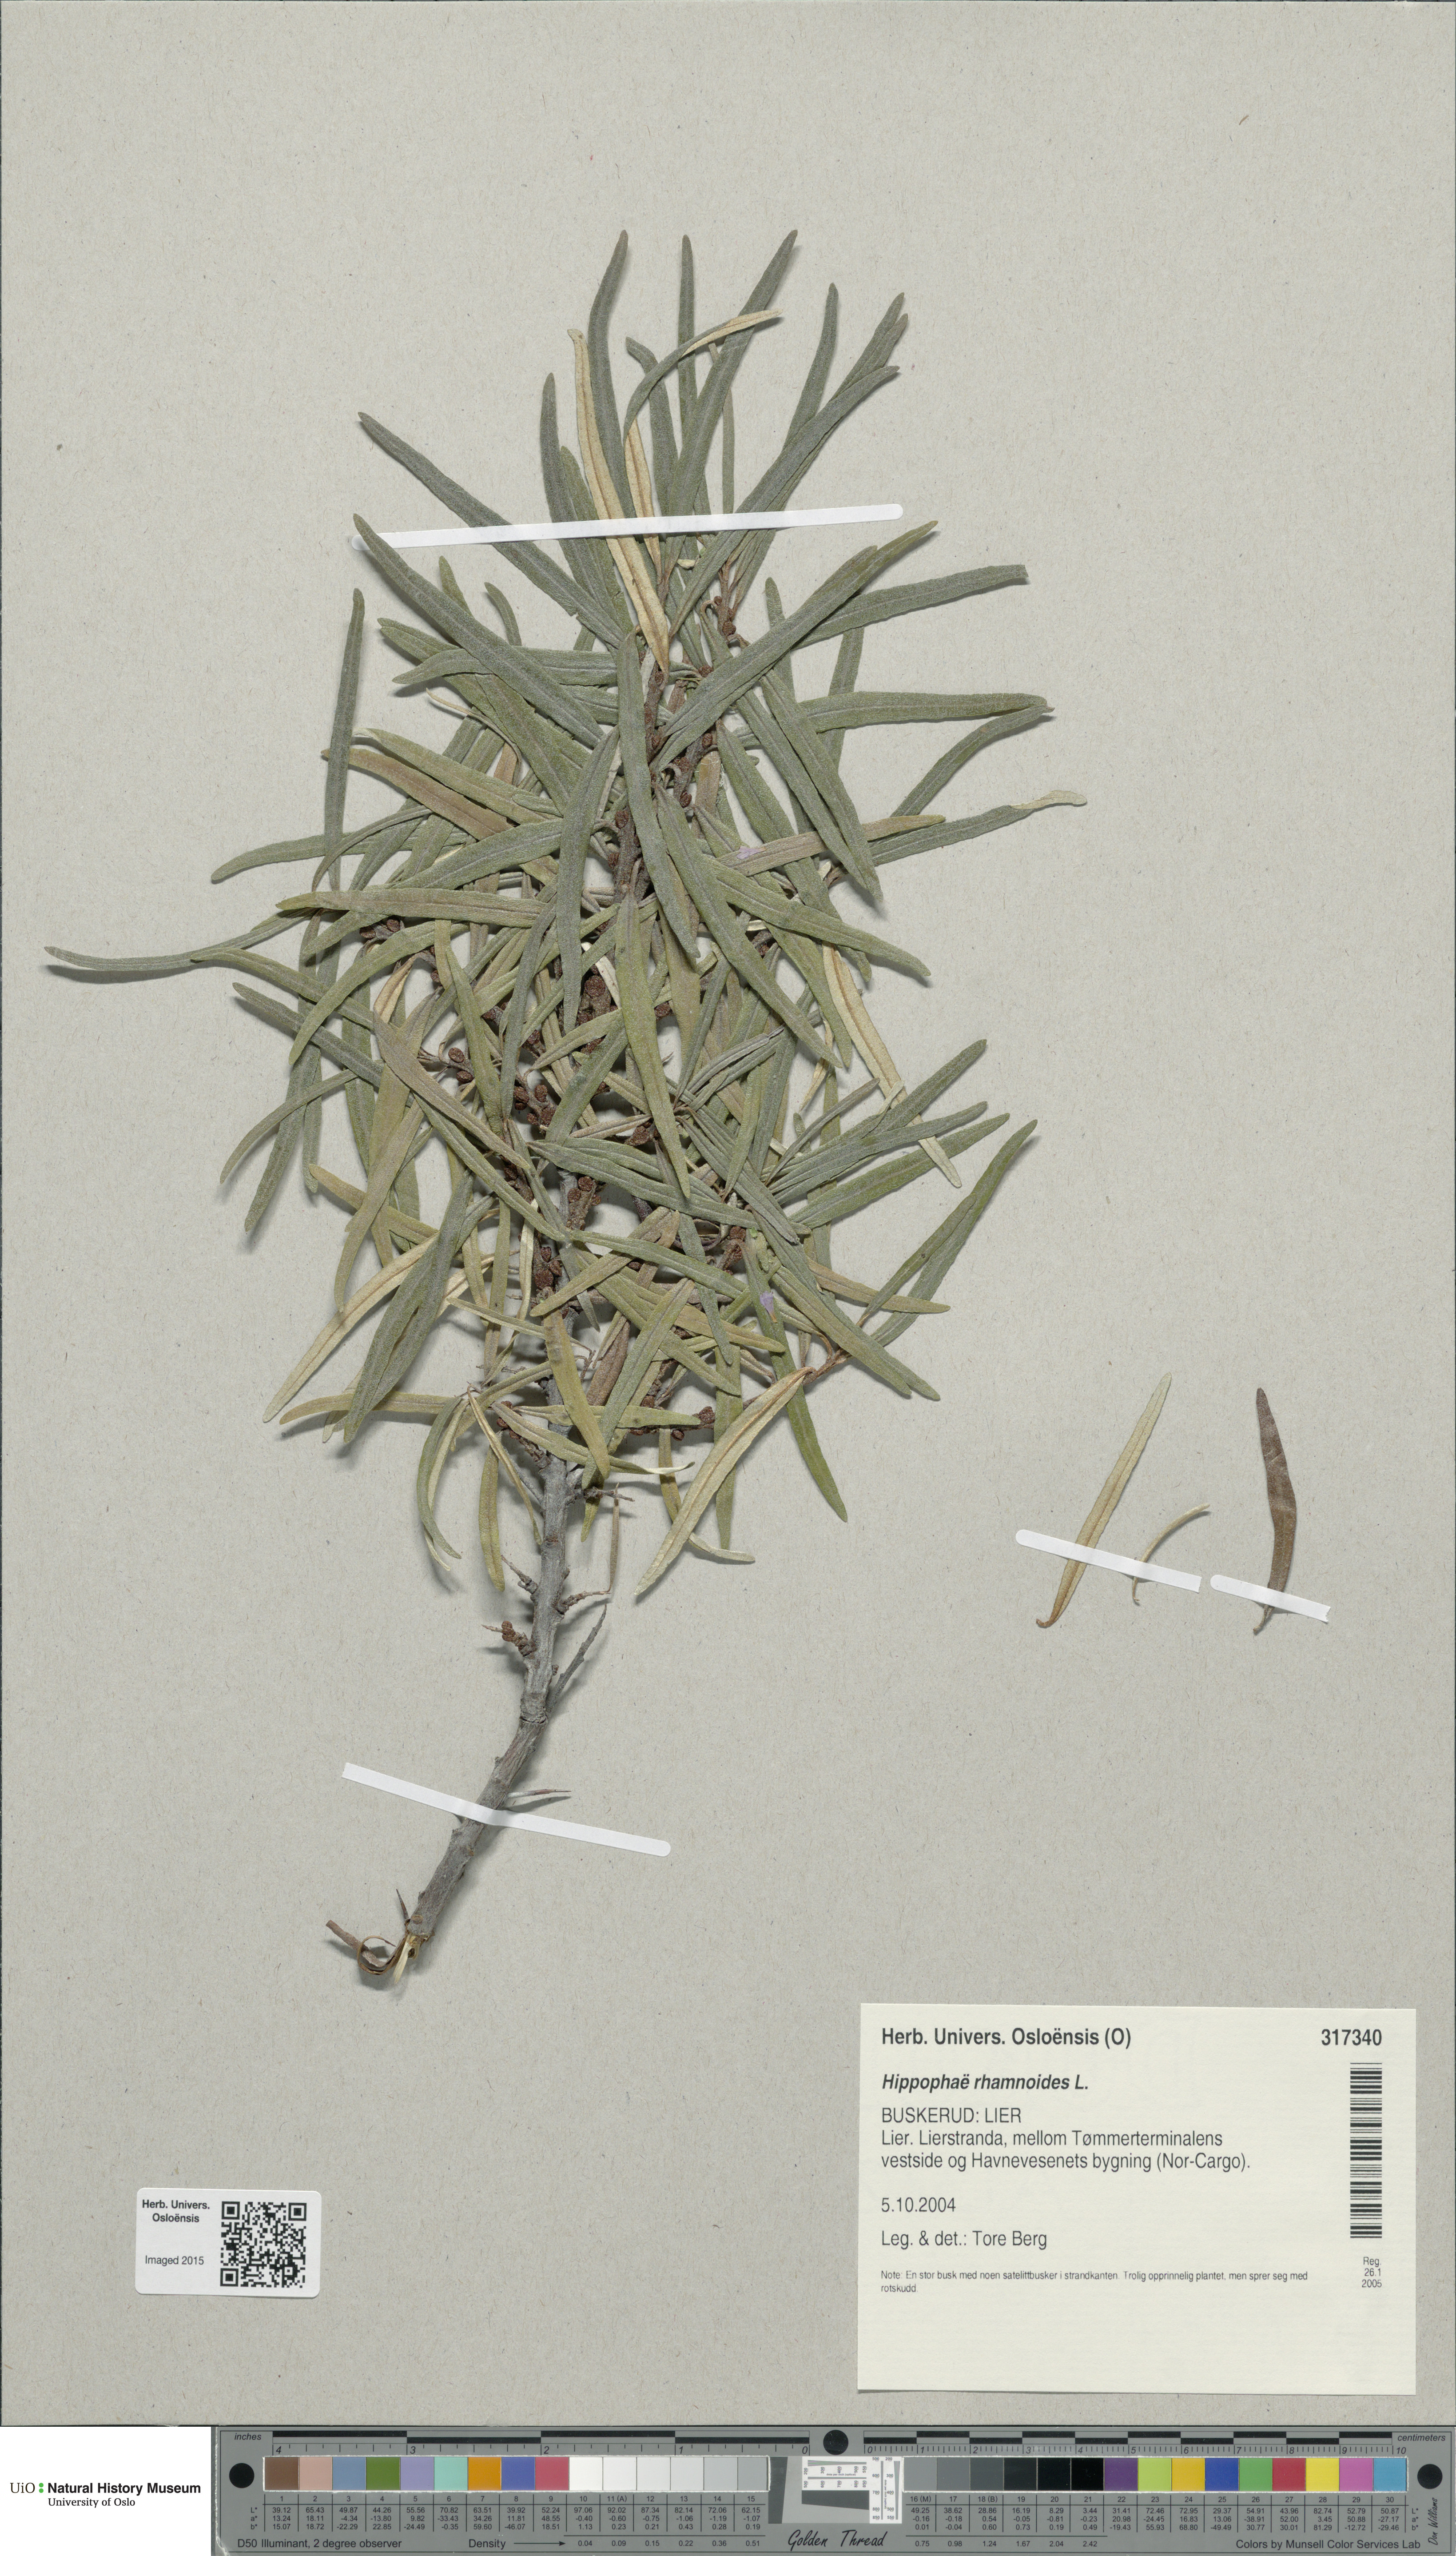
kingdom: Plantae
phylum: Tracheophyta
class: Magnoliopsida
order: Rosales
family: Elaeagnaceae
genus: Hippophae
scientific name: Hippophae rhamnoides
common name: Sea-buckthorn
